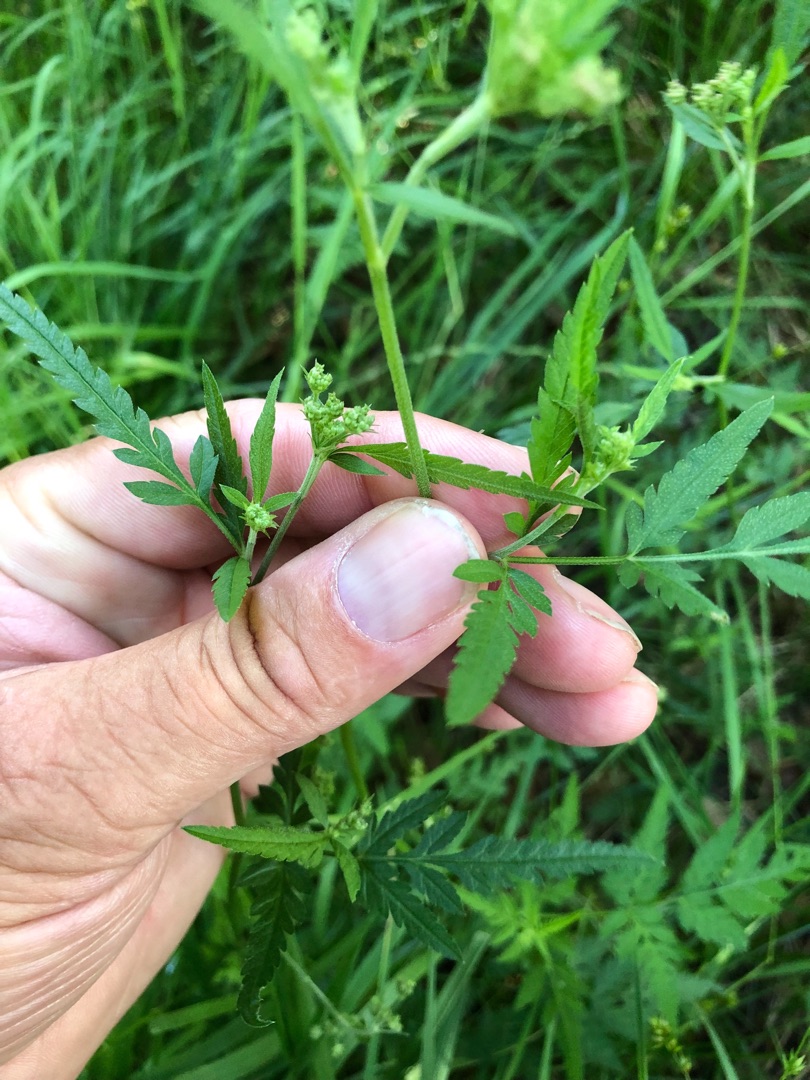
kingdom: Plantae
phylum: Tracheophyta
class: Magnoliopsida
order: Apiales
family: Apiaceae
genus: Torilis
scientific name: Torilis japonica
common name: Hvas randfrø
